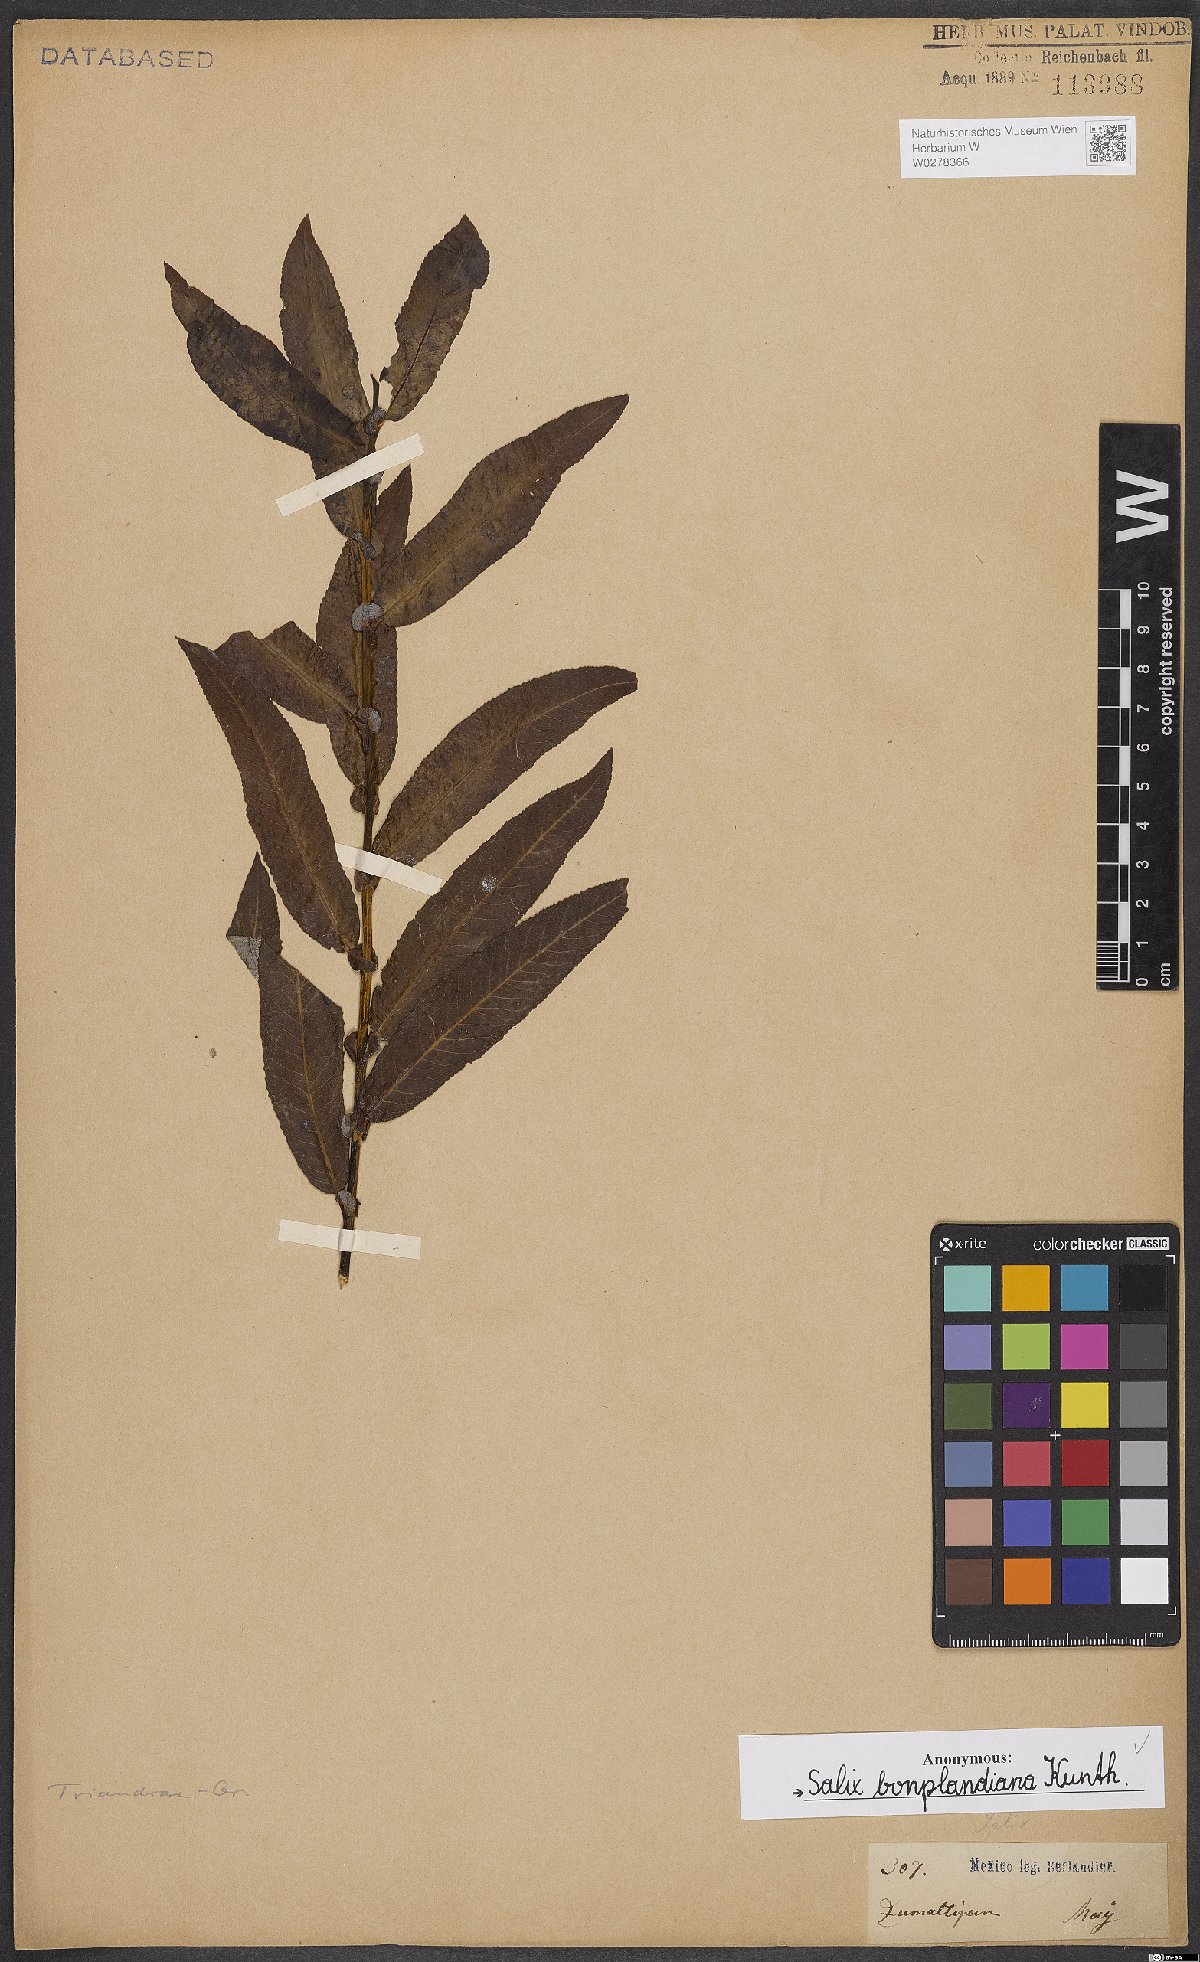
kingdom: Plantae
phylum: Tracheophyta
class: Magnoliopsida
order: Malpighiales
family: Salicaceae
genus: Salix
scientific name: Salix bonplandiana
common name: Bonpland’s willow
